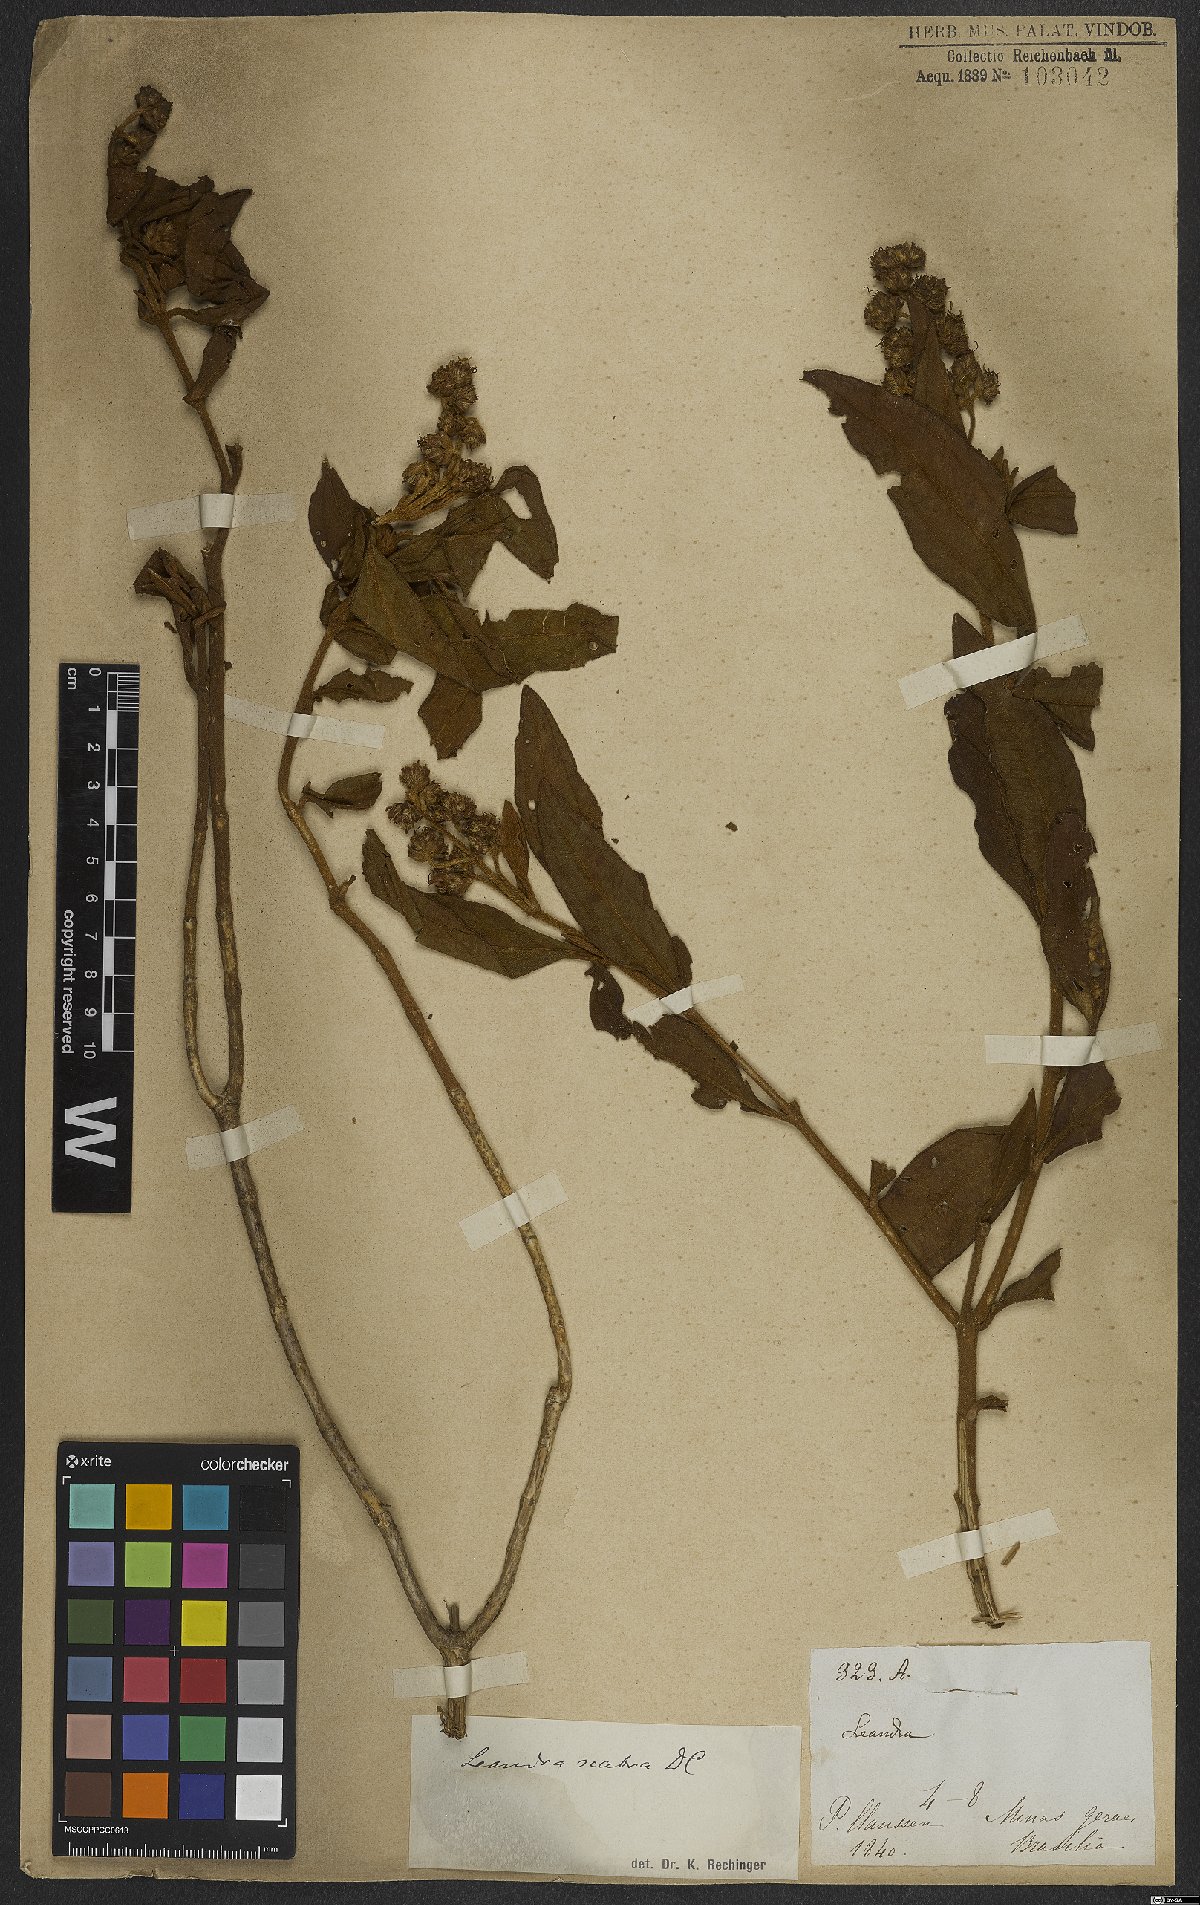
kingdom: Plantae
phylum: Tracheophyta
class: Magnoliopsida
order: Myrtales
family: Melastomataceae
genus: Miconia
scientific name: Miconia melastomoides
